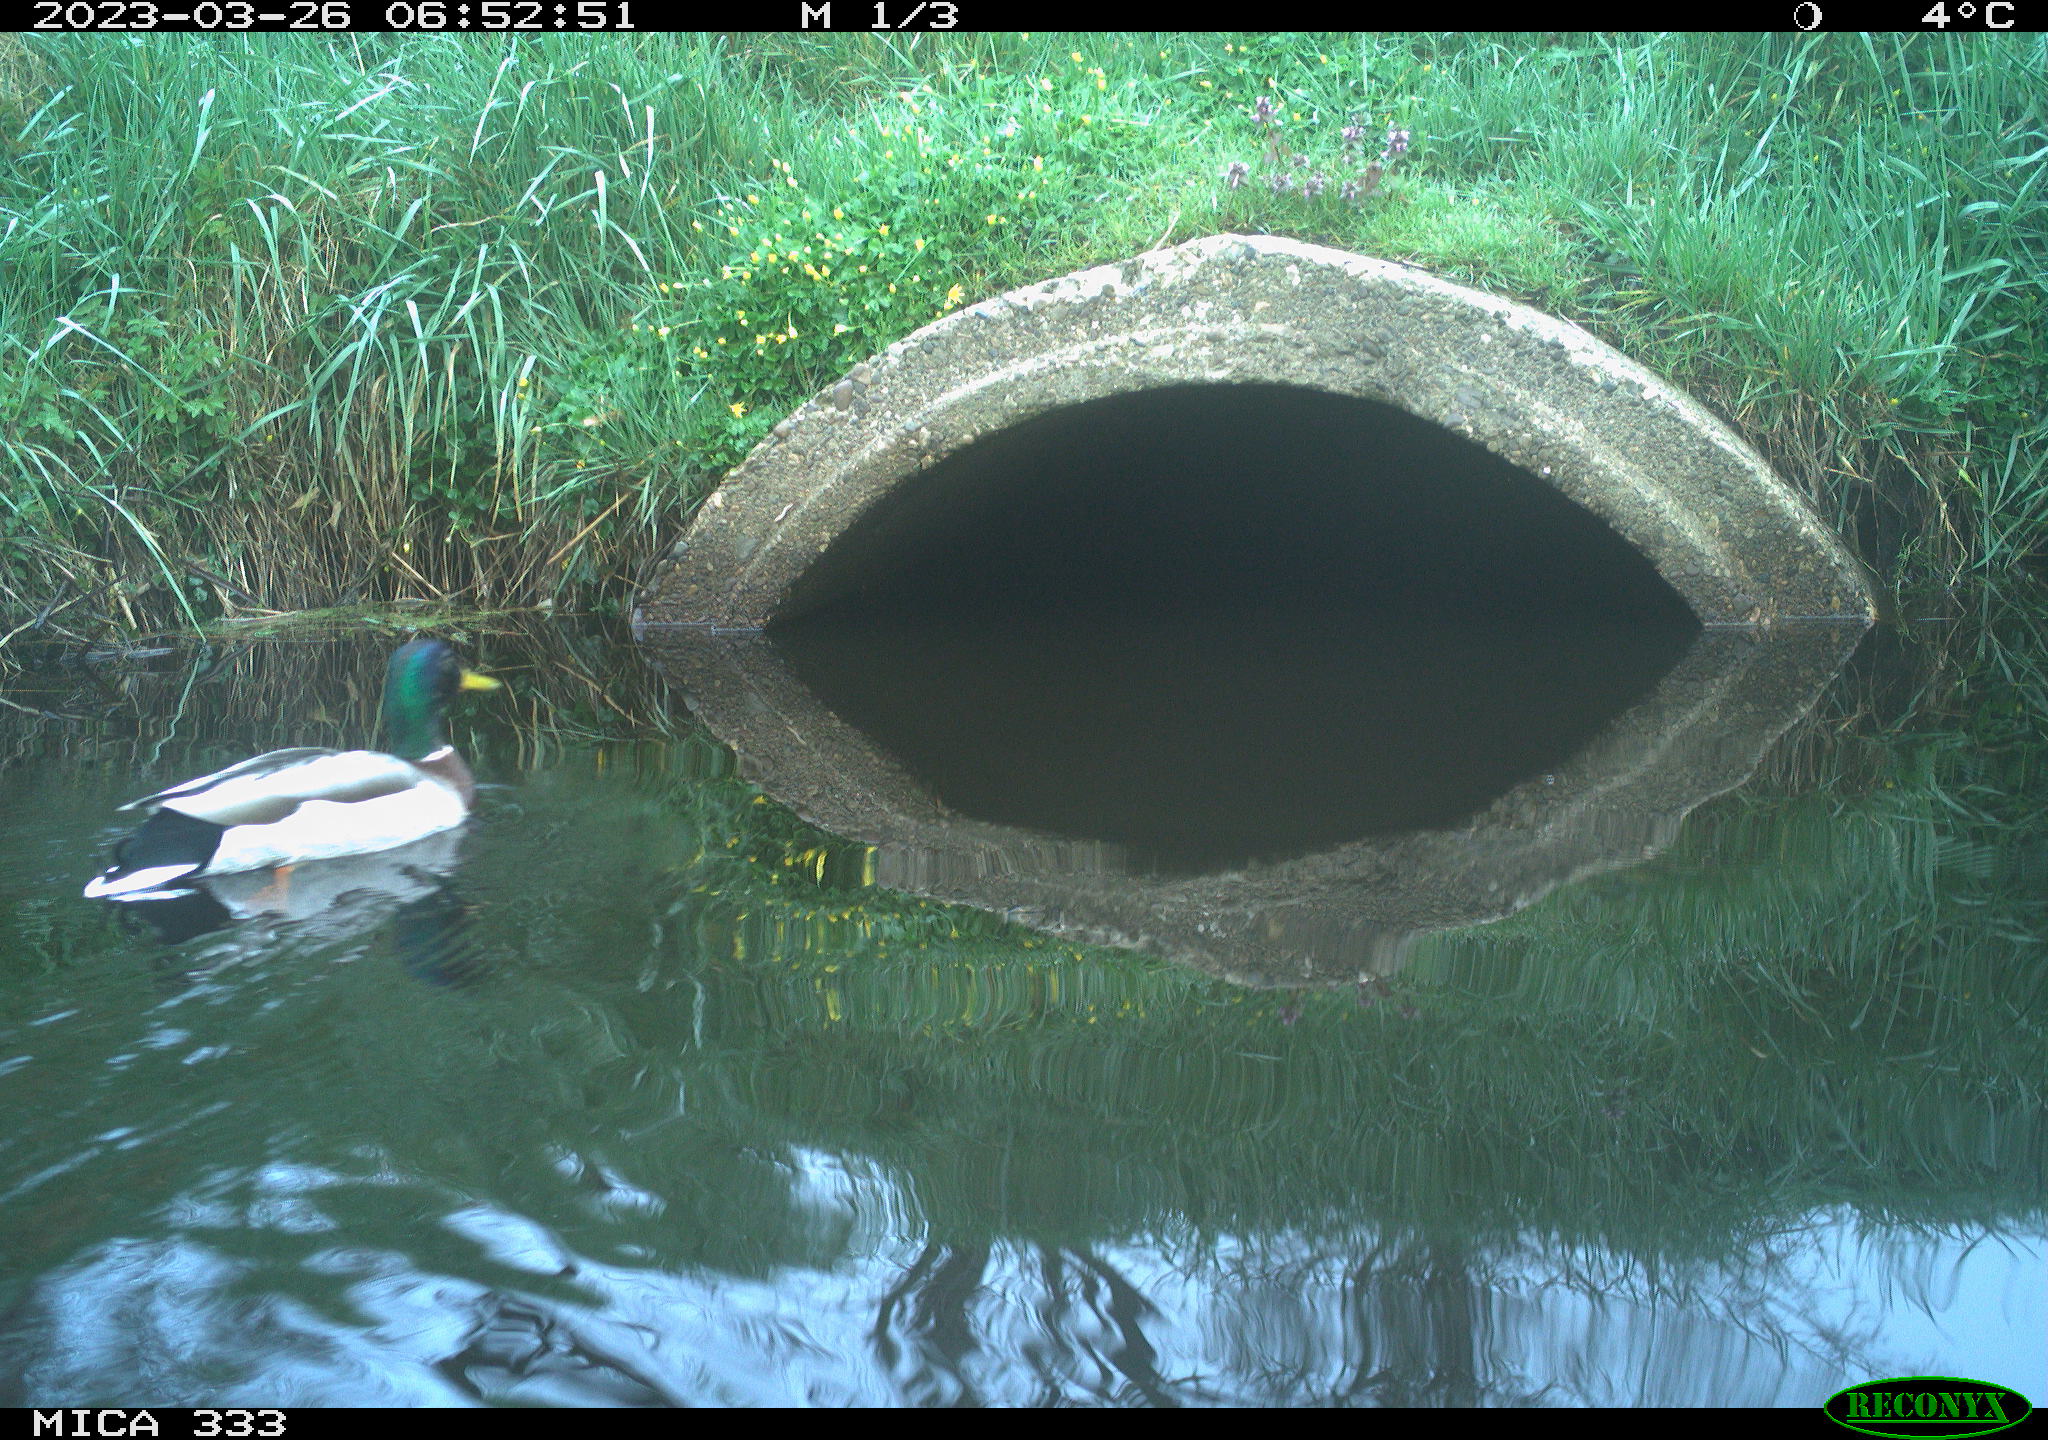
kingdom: Animalia
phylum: Chordata
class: Aves
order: Anseriformes
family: Anatidae
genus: Anas
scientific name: Anas platyrhynchos
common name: Mallard
